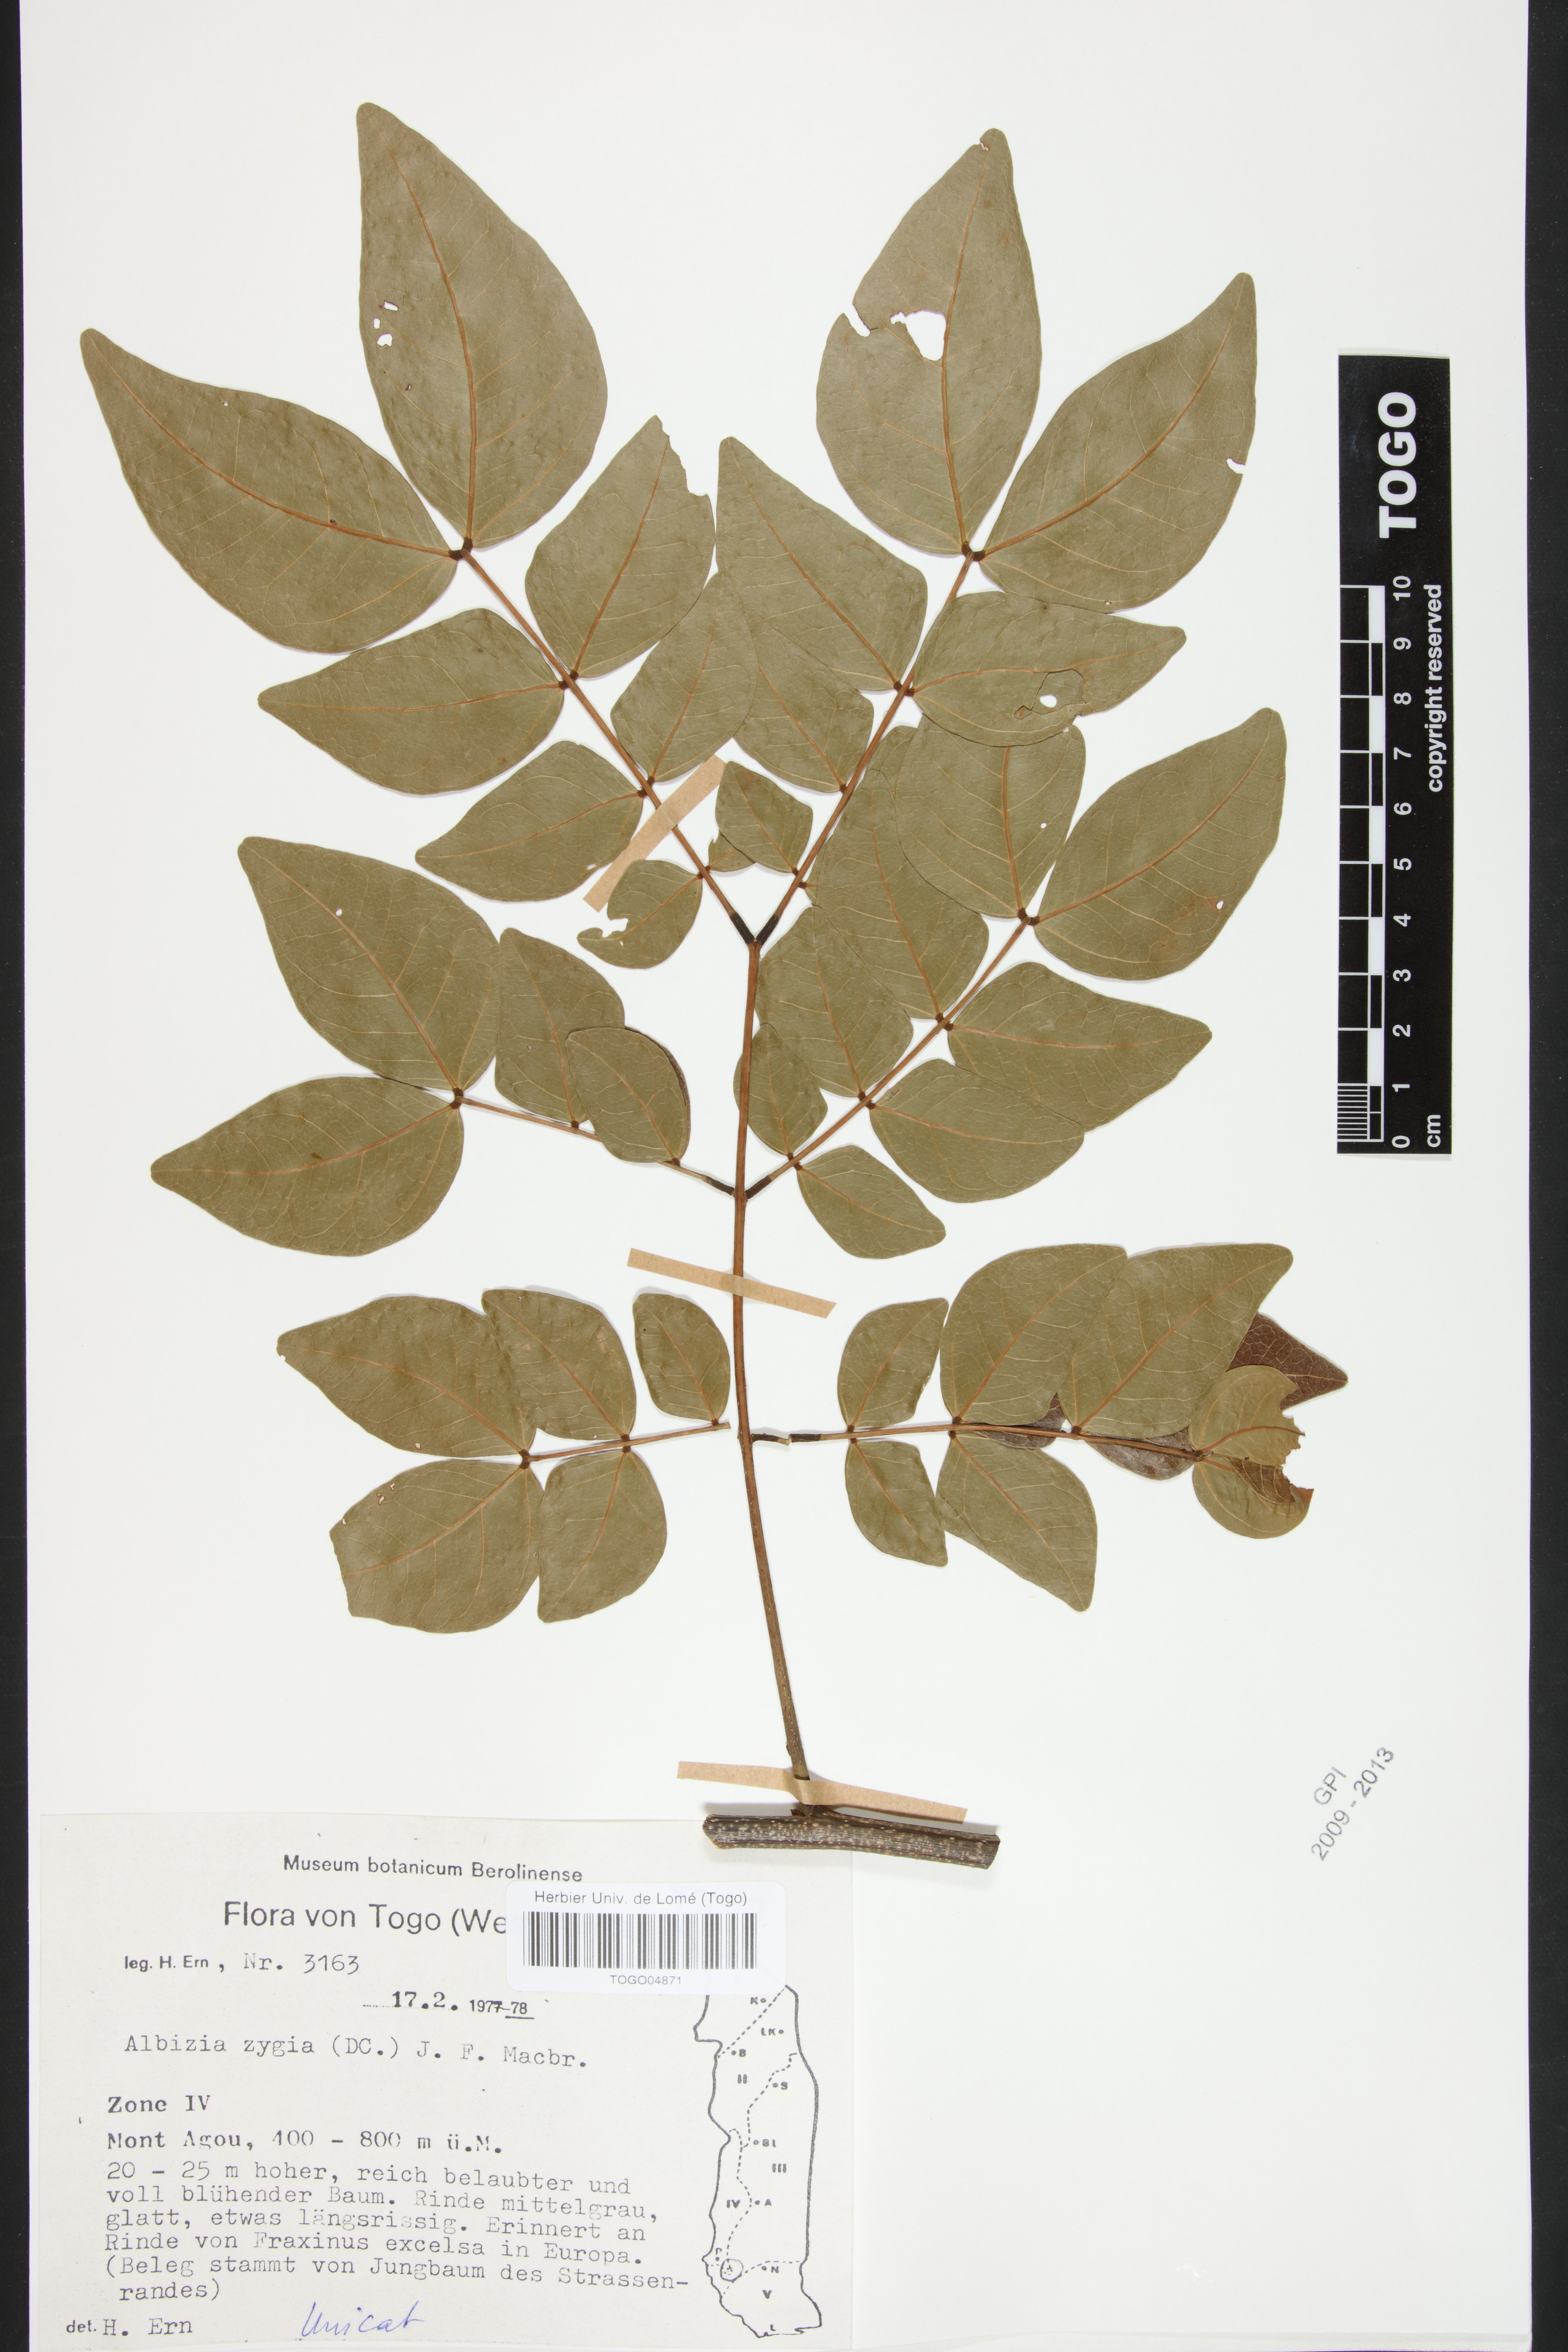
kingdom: Plantae
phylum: Tracheophyta
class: Magnoliopsida
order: Fabales
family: Fabaceae
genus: Albizia
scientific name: Albizia zygia
